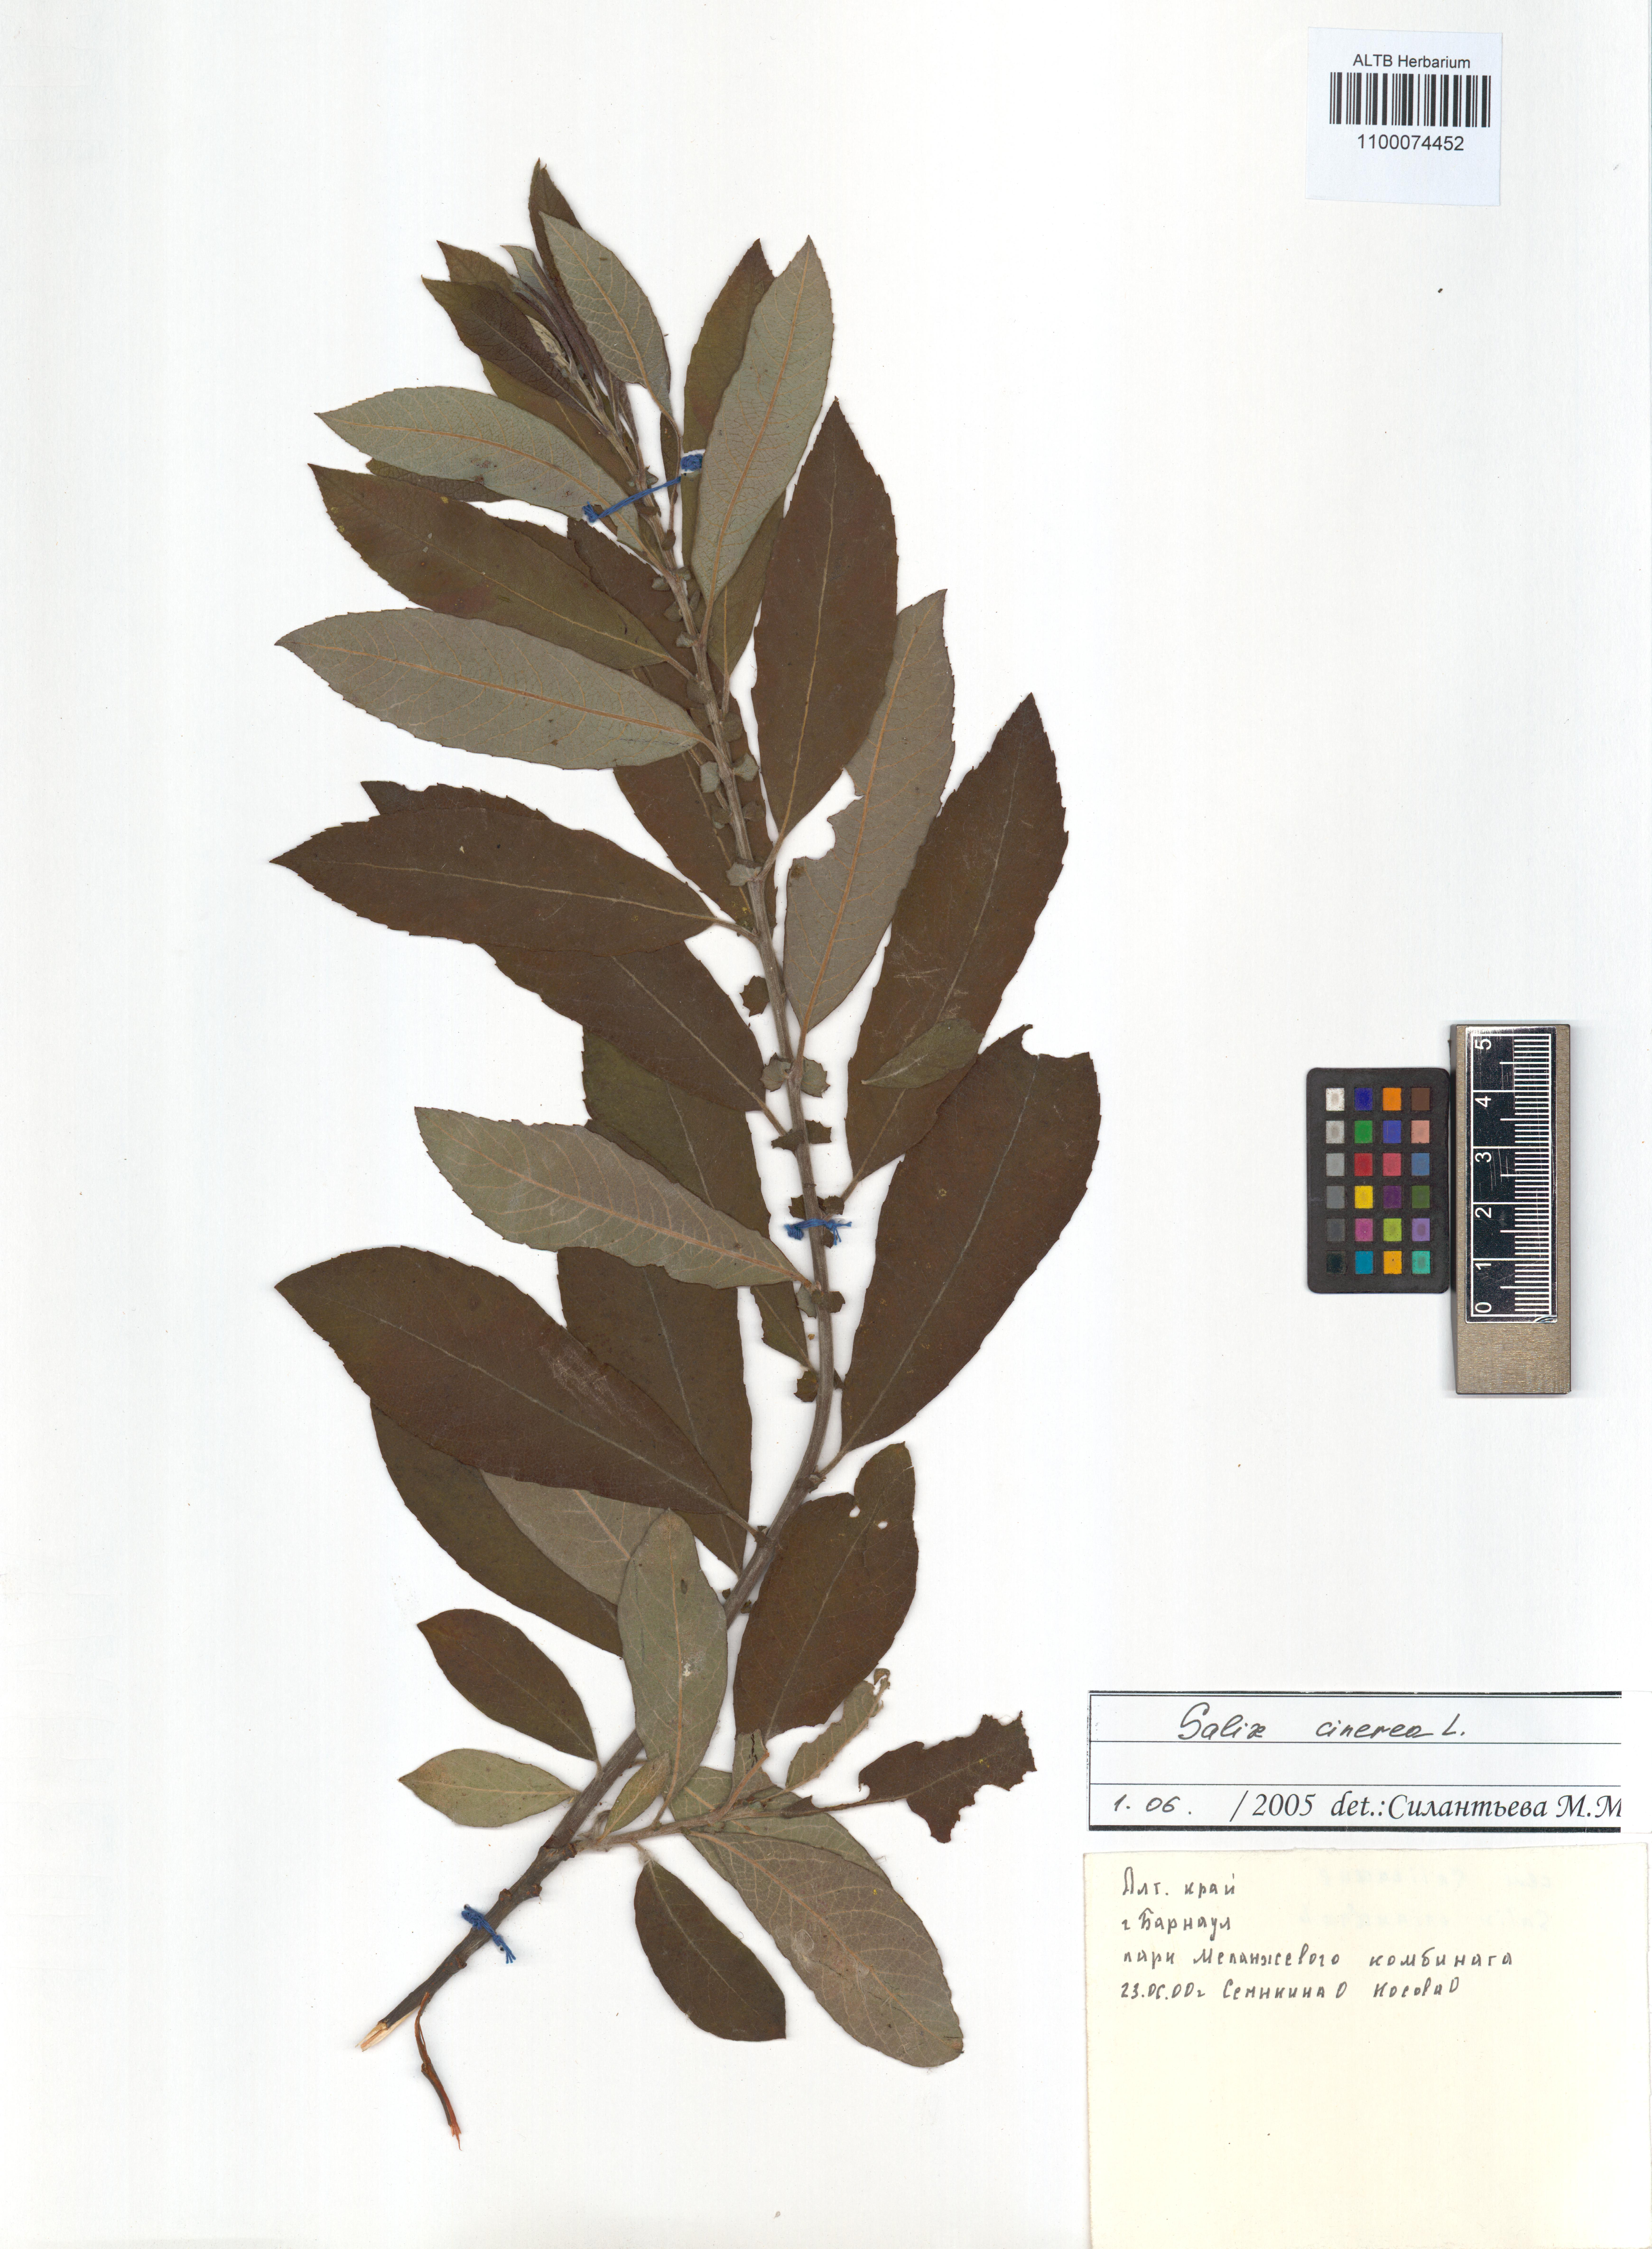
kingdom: Plantae
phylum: Tracheophyta
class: Magnoliopsida
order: Malpighiales
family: Salicaceae
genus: Salix
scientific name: Salix cinerea
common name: Common sallow
